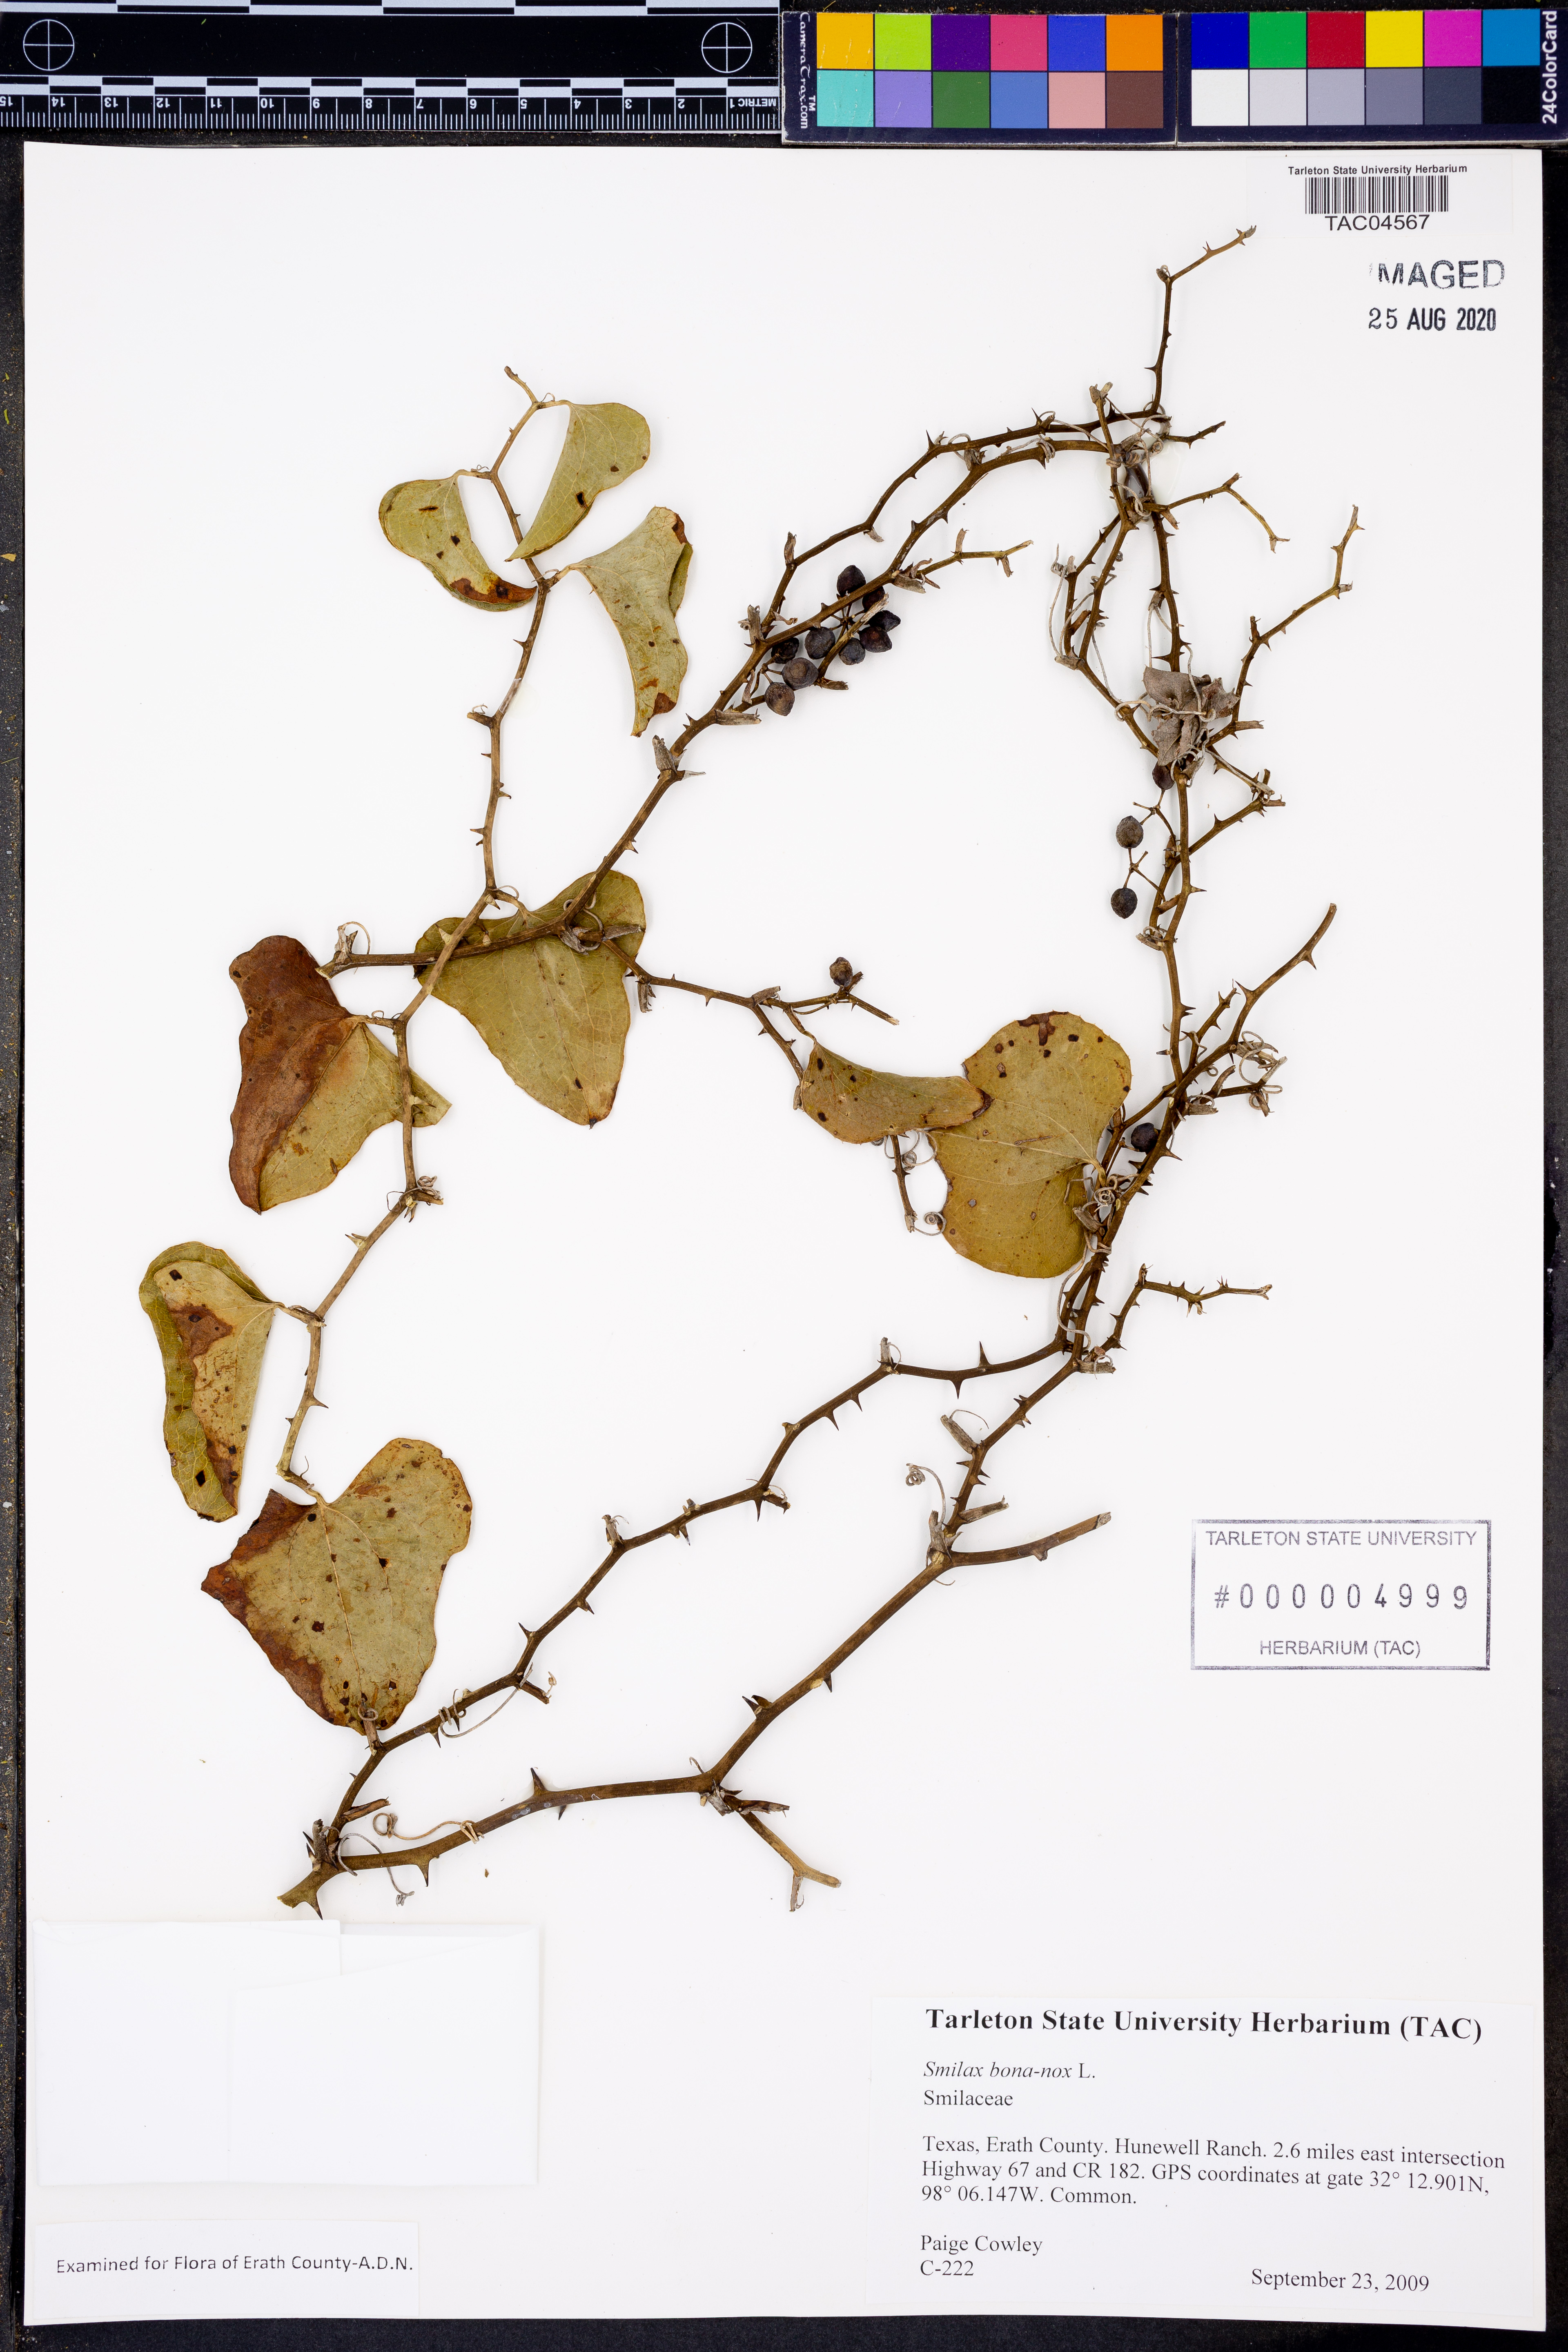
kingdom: Plantae
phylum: Tracheophyta
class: Liliopsida
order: Liliales
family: Smilacaceae
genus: Smilax
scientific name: Smilax bona-nox
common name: Catbrier
